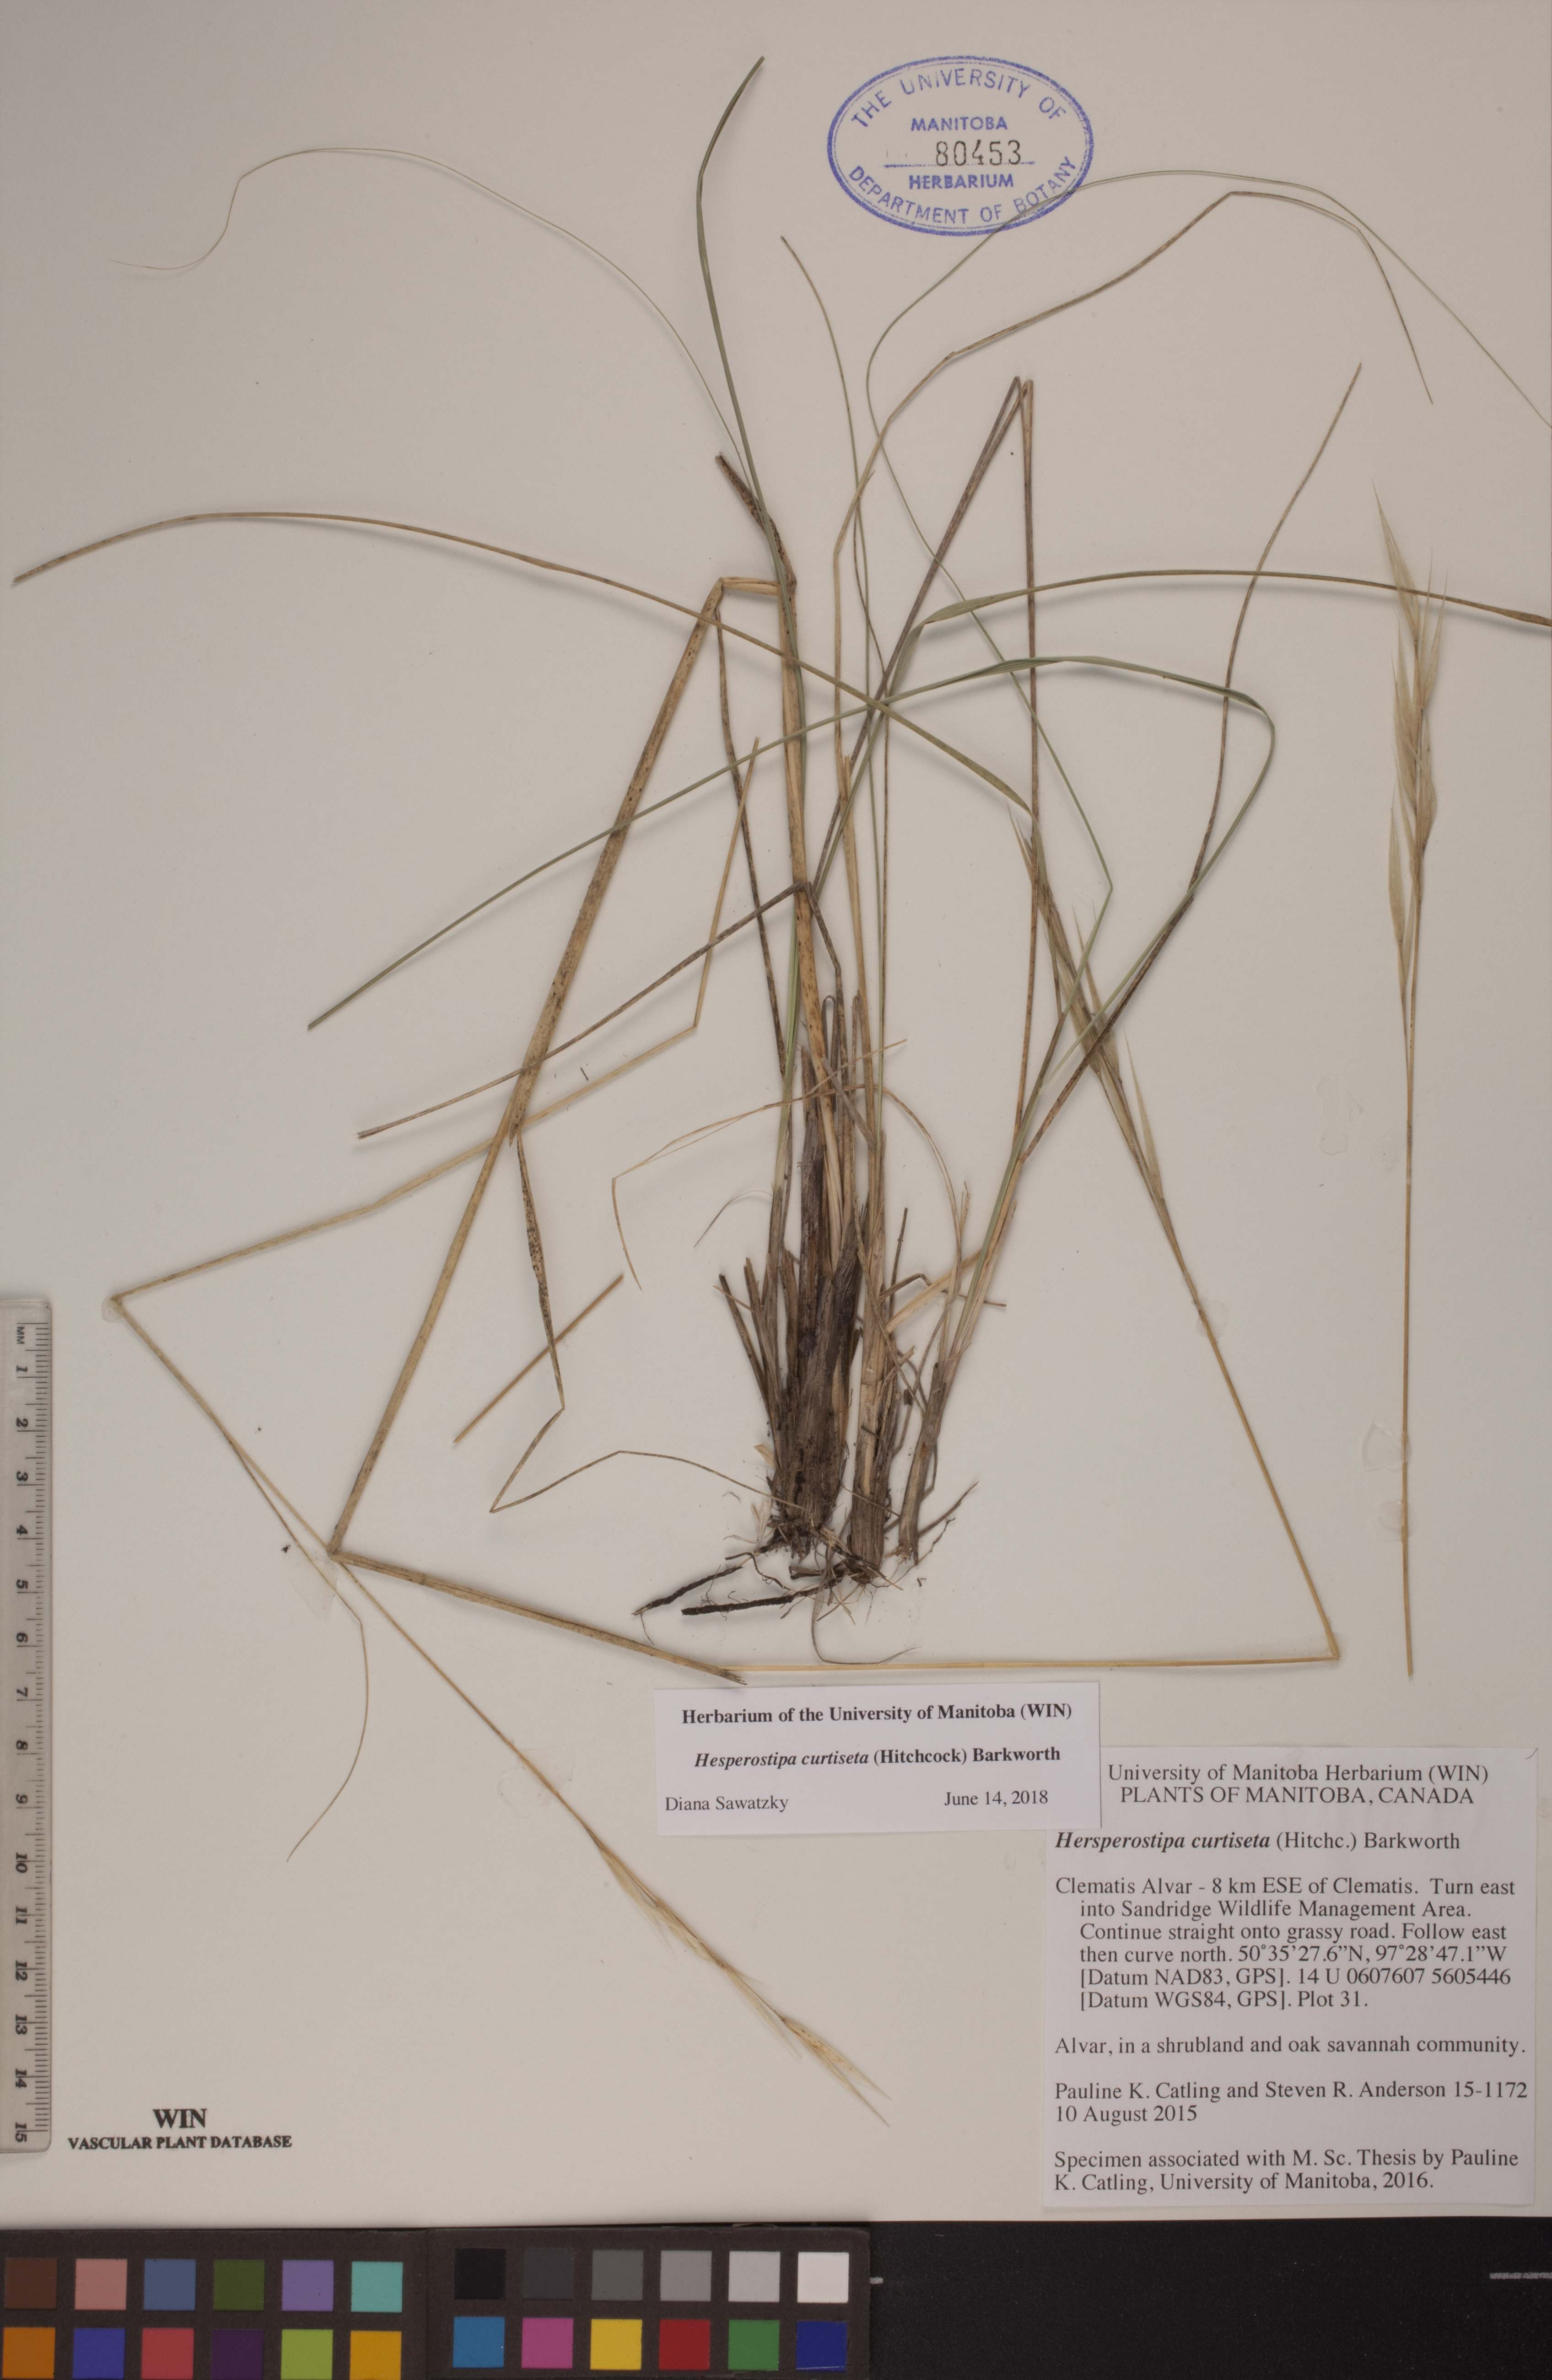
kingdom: Plantae
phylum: Tracheophyta
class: Liliopsida
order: Poales
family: Poaceae
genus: Hesperostipa
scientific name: Hesperostipa curtiseta
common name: Canada needle-and-thread grass
